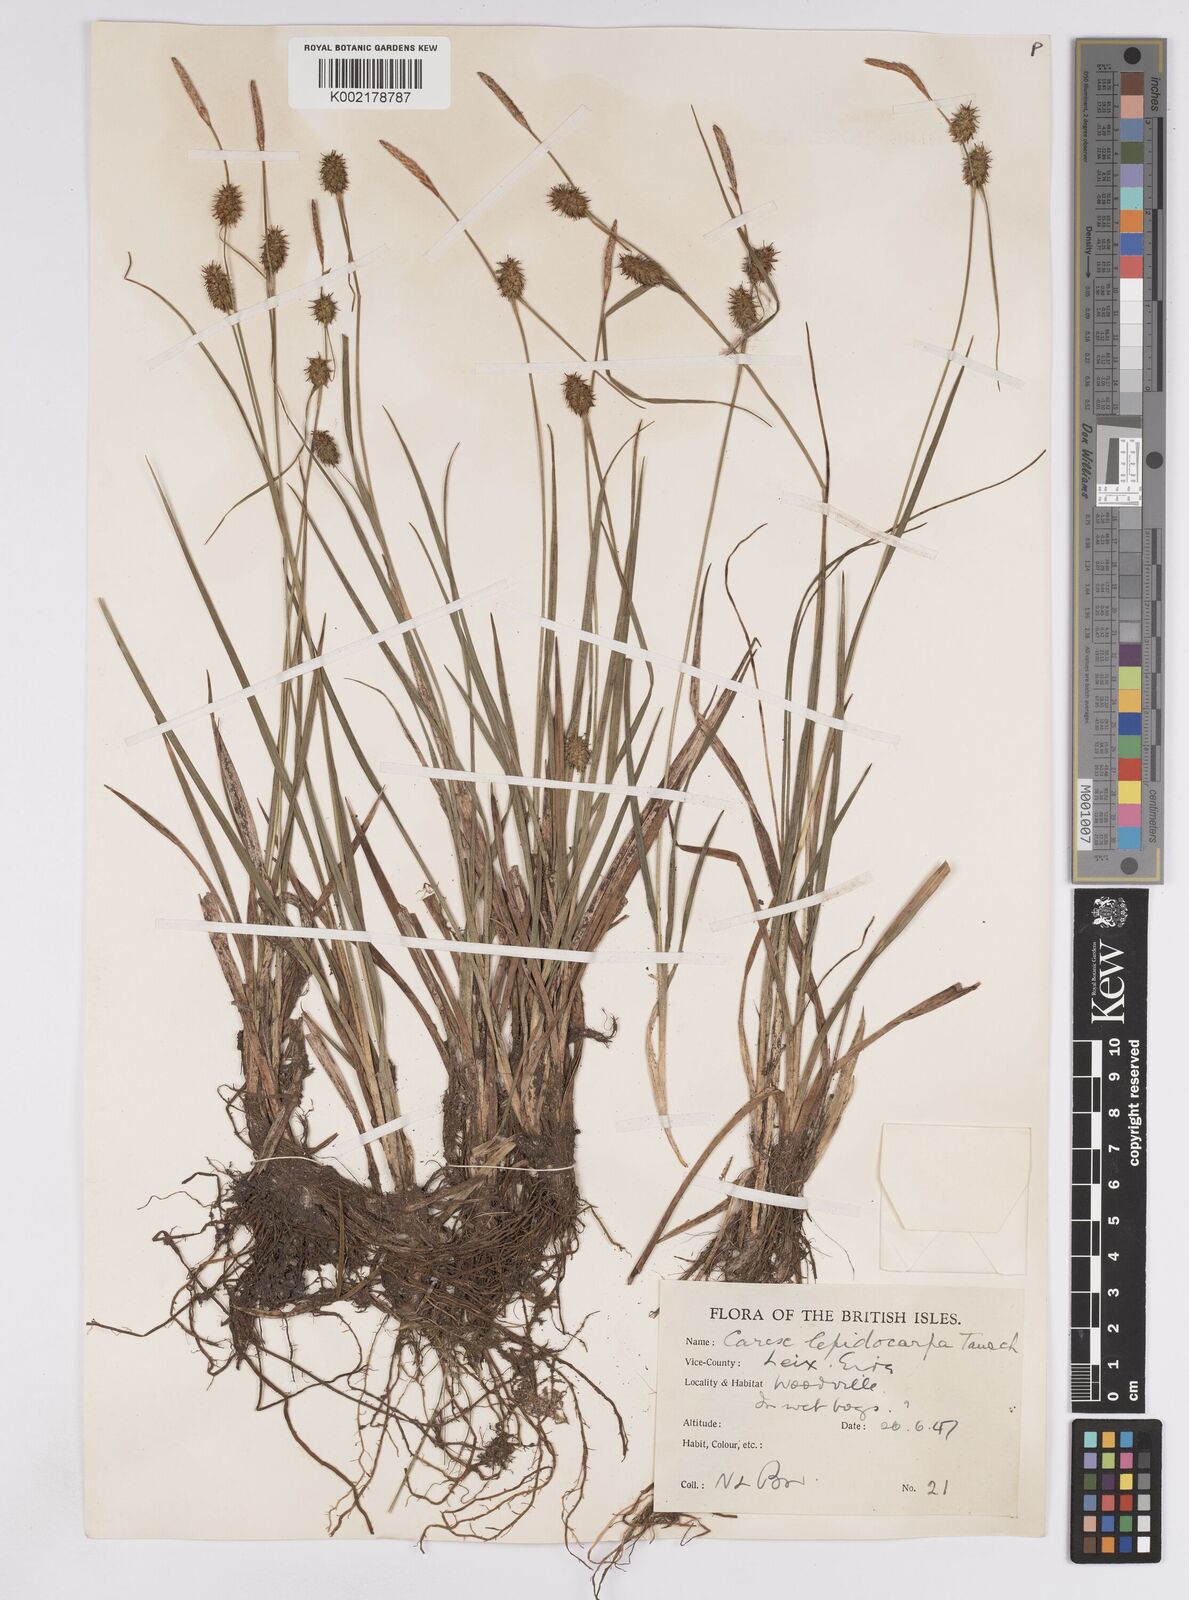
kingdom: Plantae
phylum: Tracheophyta
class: Liliopsida
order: Poales
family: Cyperaceae
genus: Carex
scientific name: Carex lepidocarpa
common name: Long-stalked yellow-sedge
